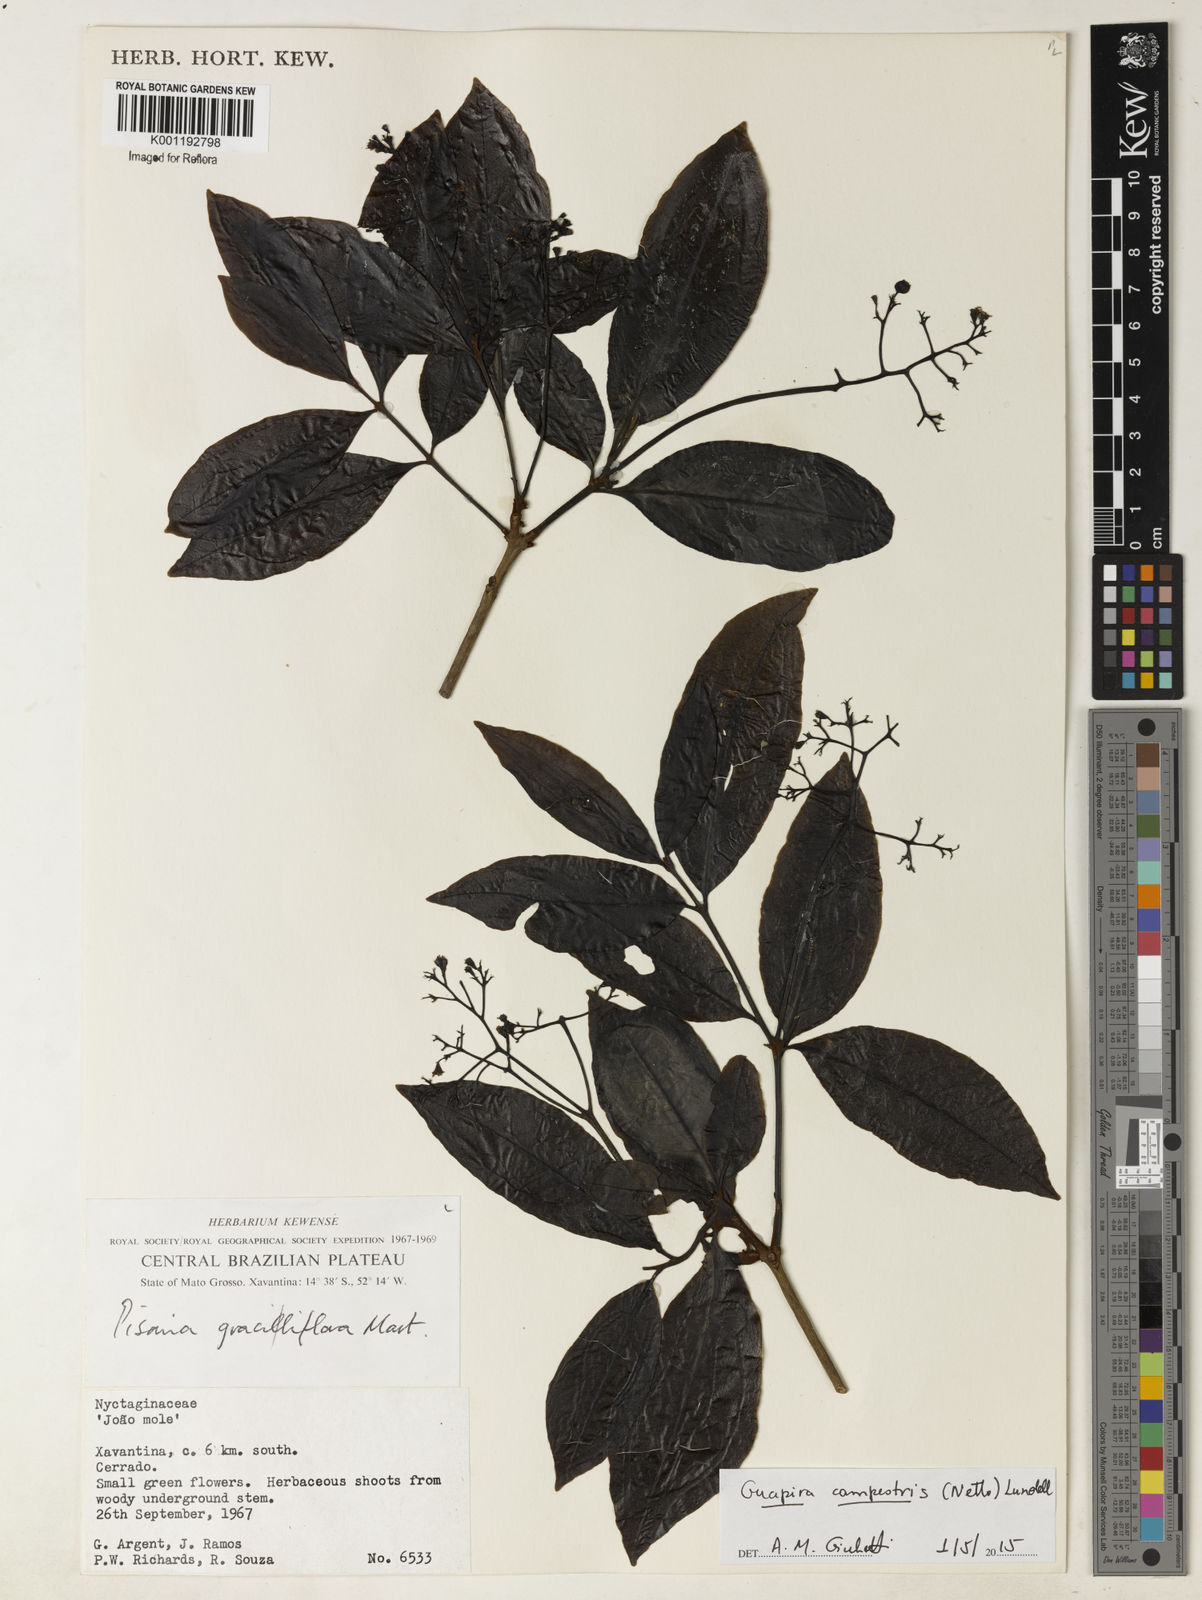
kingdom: Plantae
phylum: Tracheophyta
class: Magnoliopsida
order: Caryophyllales
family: Nyctaginaceae
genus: Guapira
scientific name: Guapira campestris
